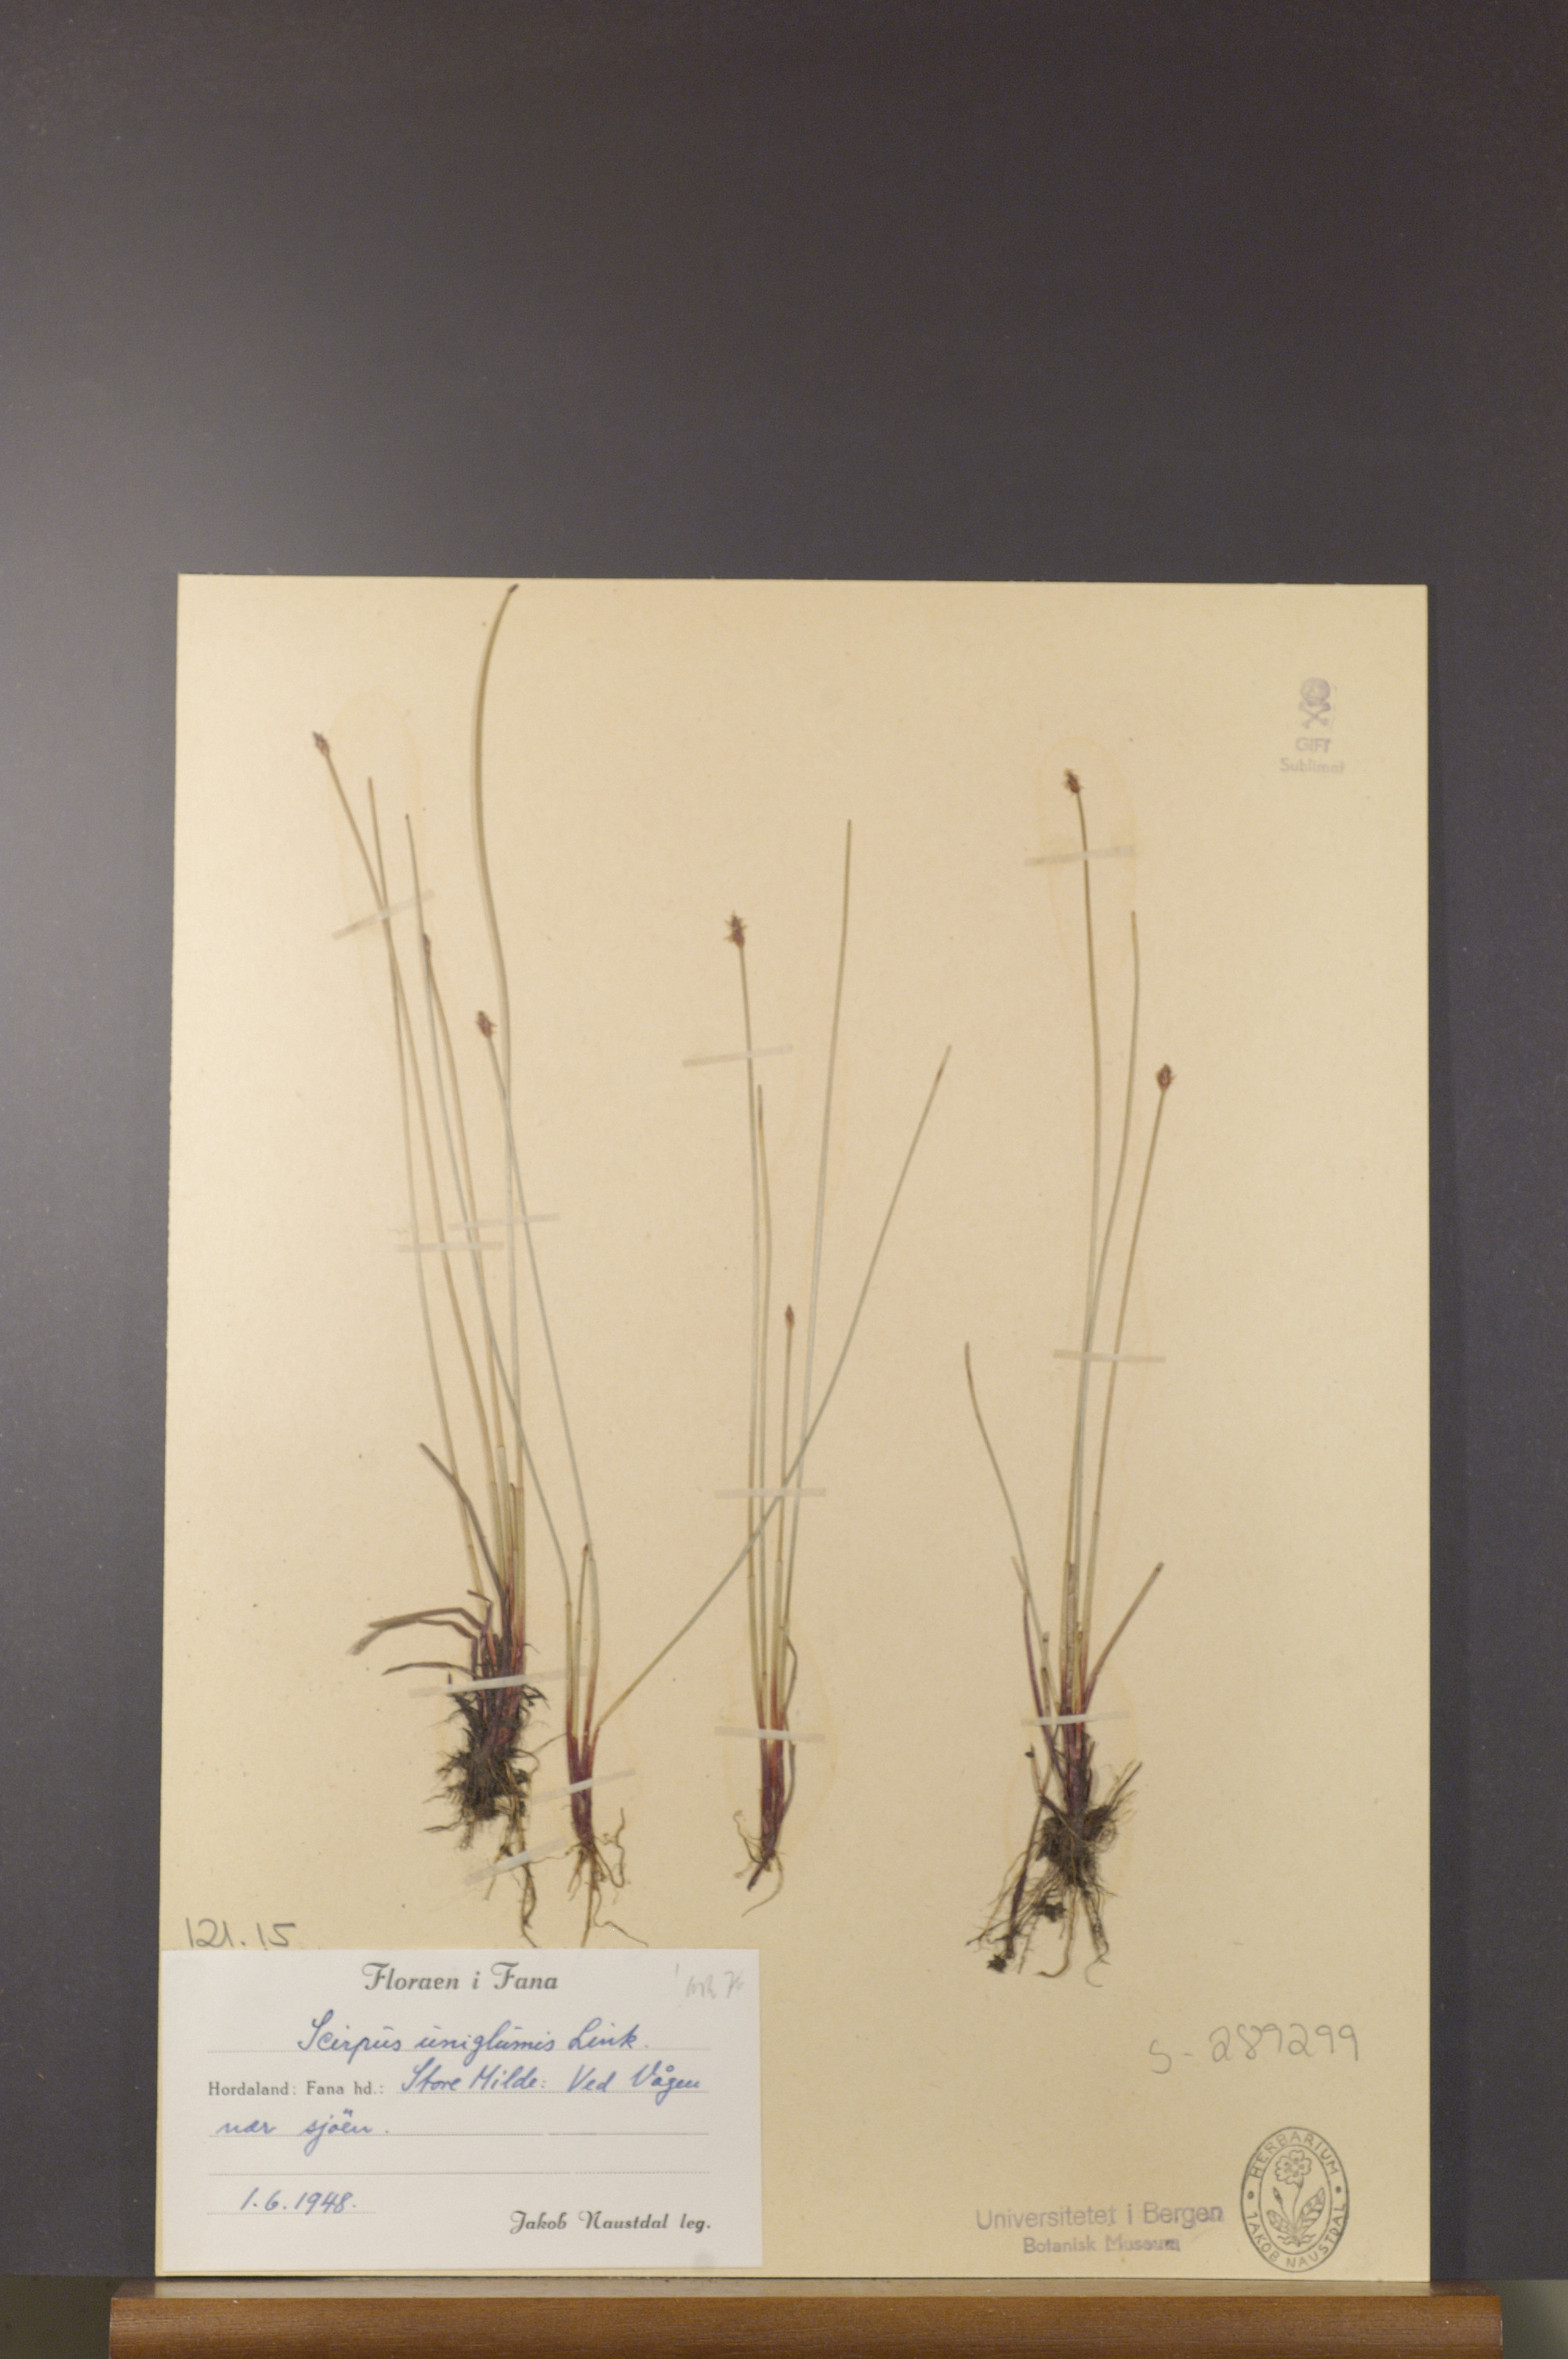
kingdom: Plantae
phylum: Tracheophyta
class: Liliopsida
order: Poales
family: Cyperaceae
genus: Eleocharis
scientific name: Eleocharis uniglumis
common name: Slender spike-rush
